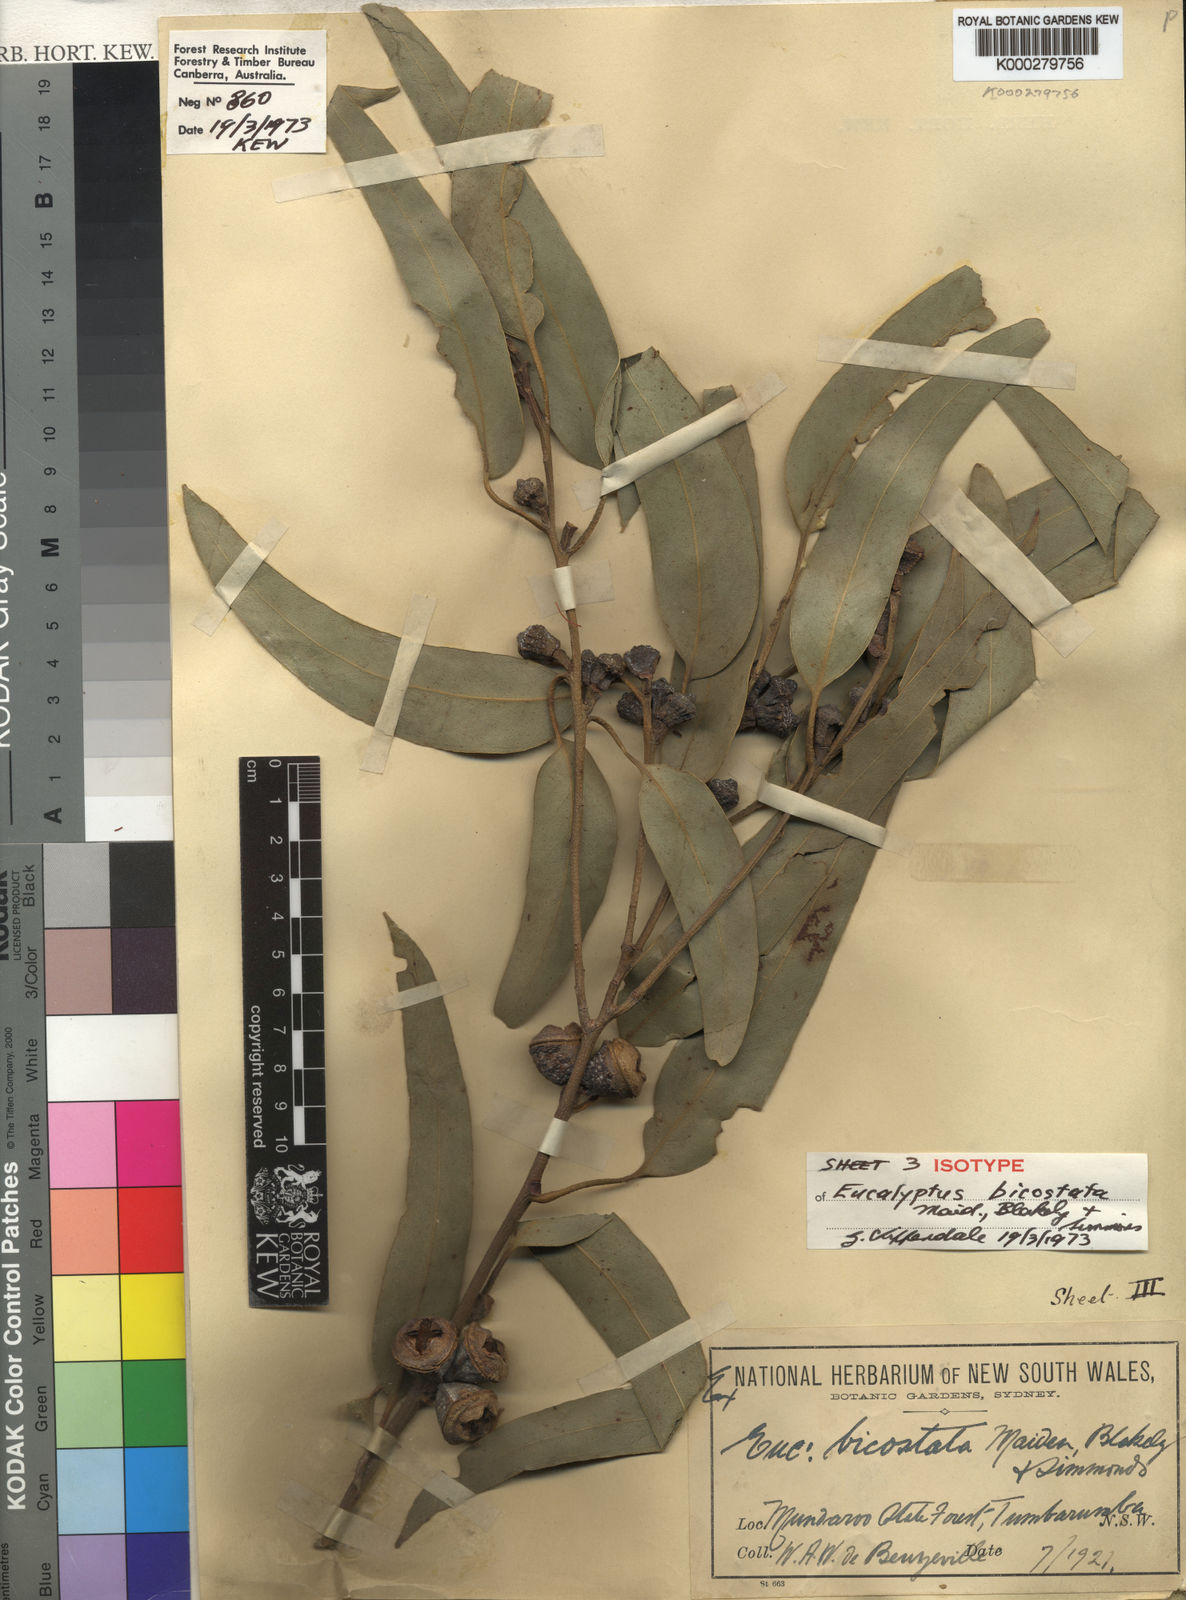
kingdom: Plantae
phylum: Tracheophyta
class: Magnoliopsida
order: Myrtales
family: Myrtaceae
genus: Eucalyptus
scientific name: Eucalyptus globulus
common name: Southern blue-gum
